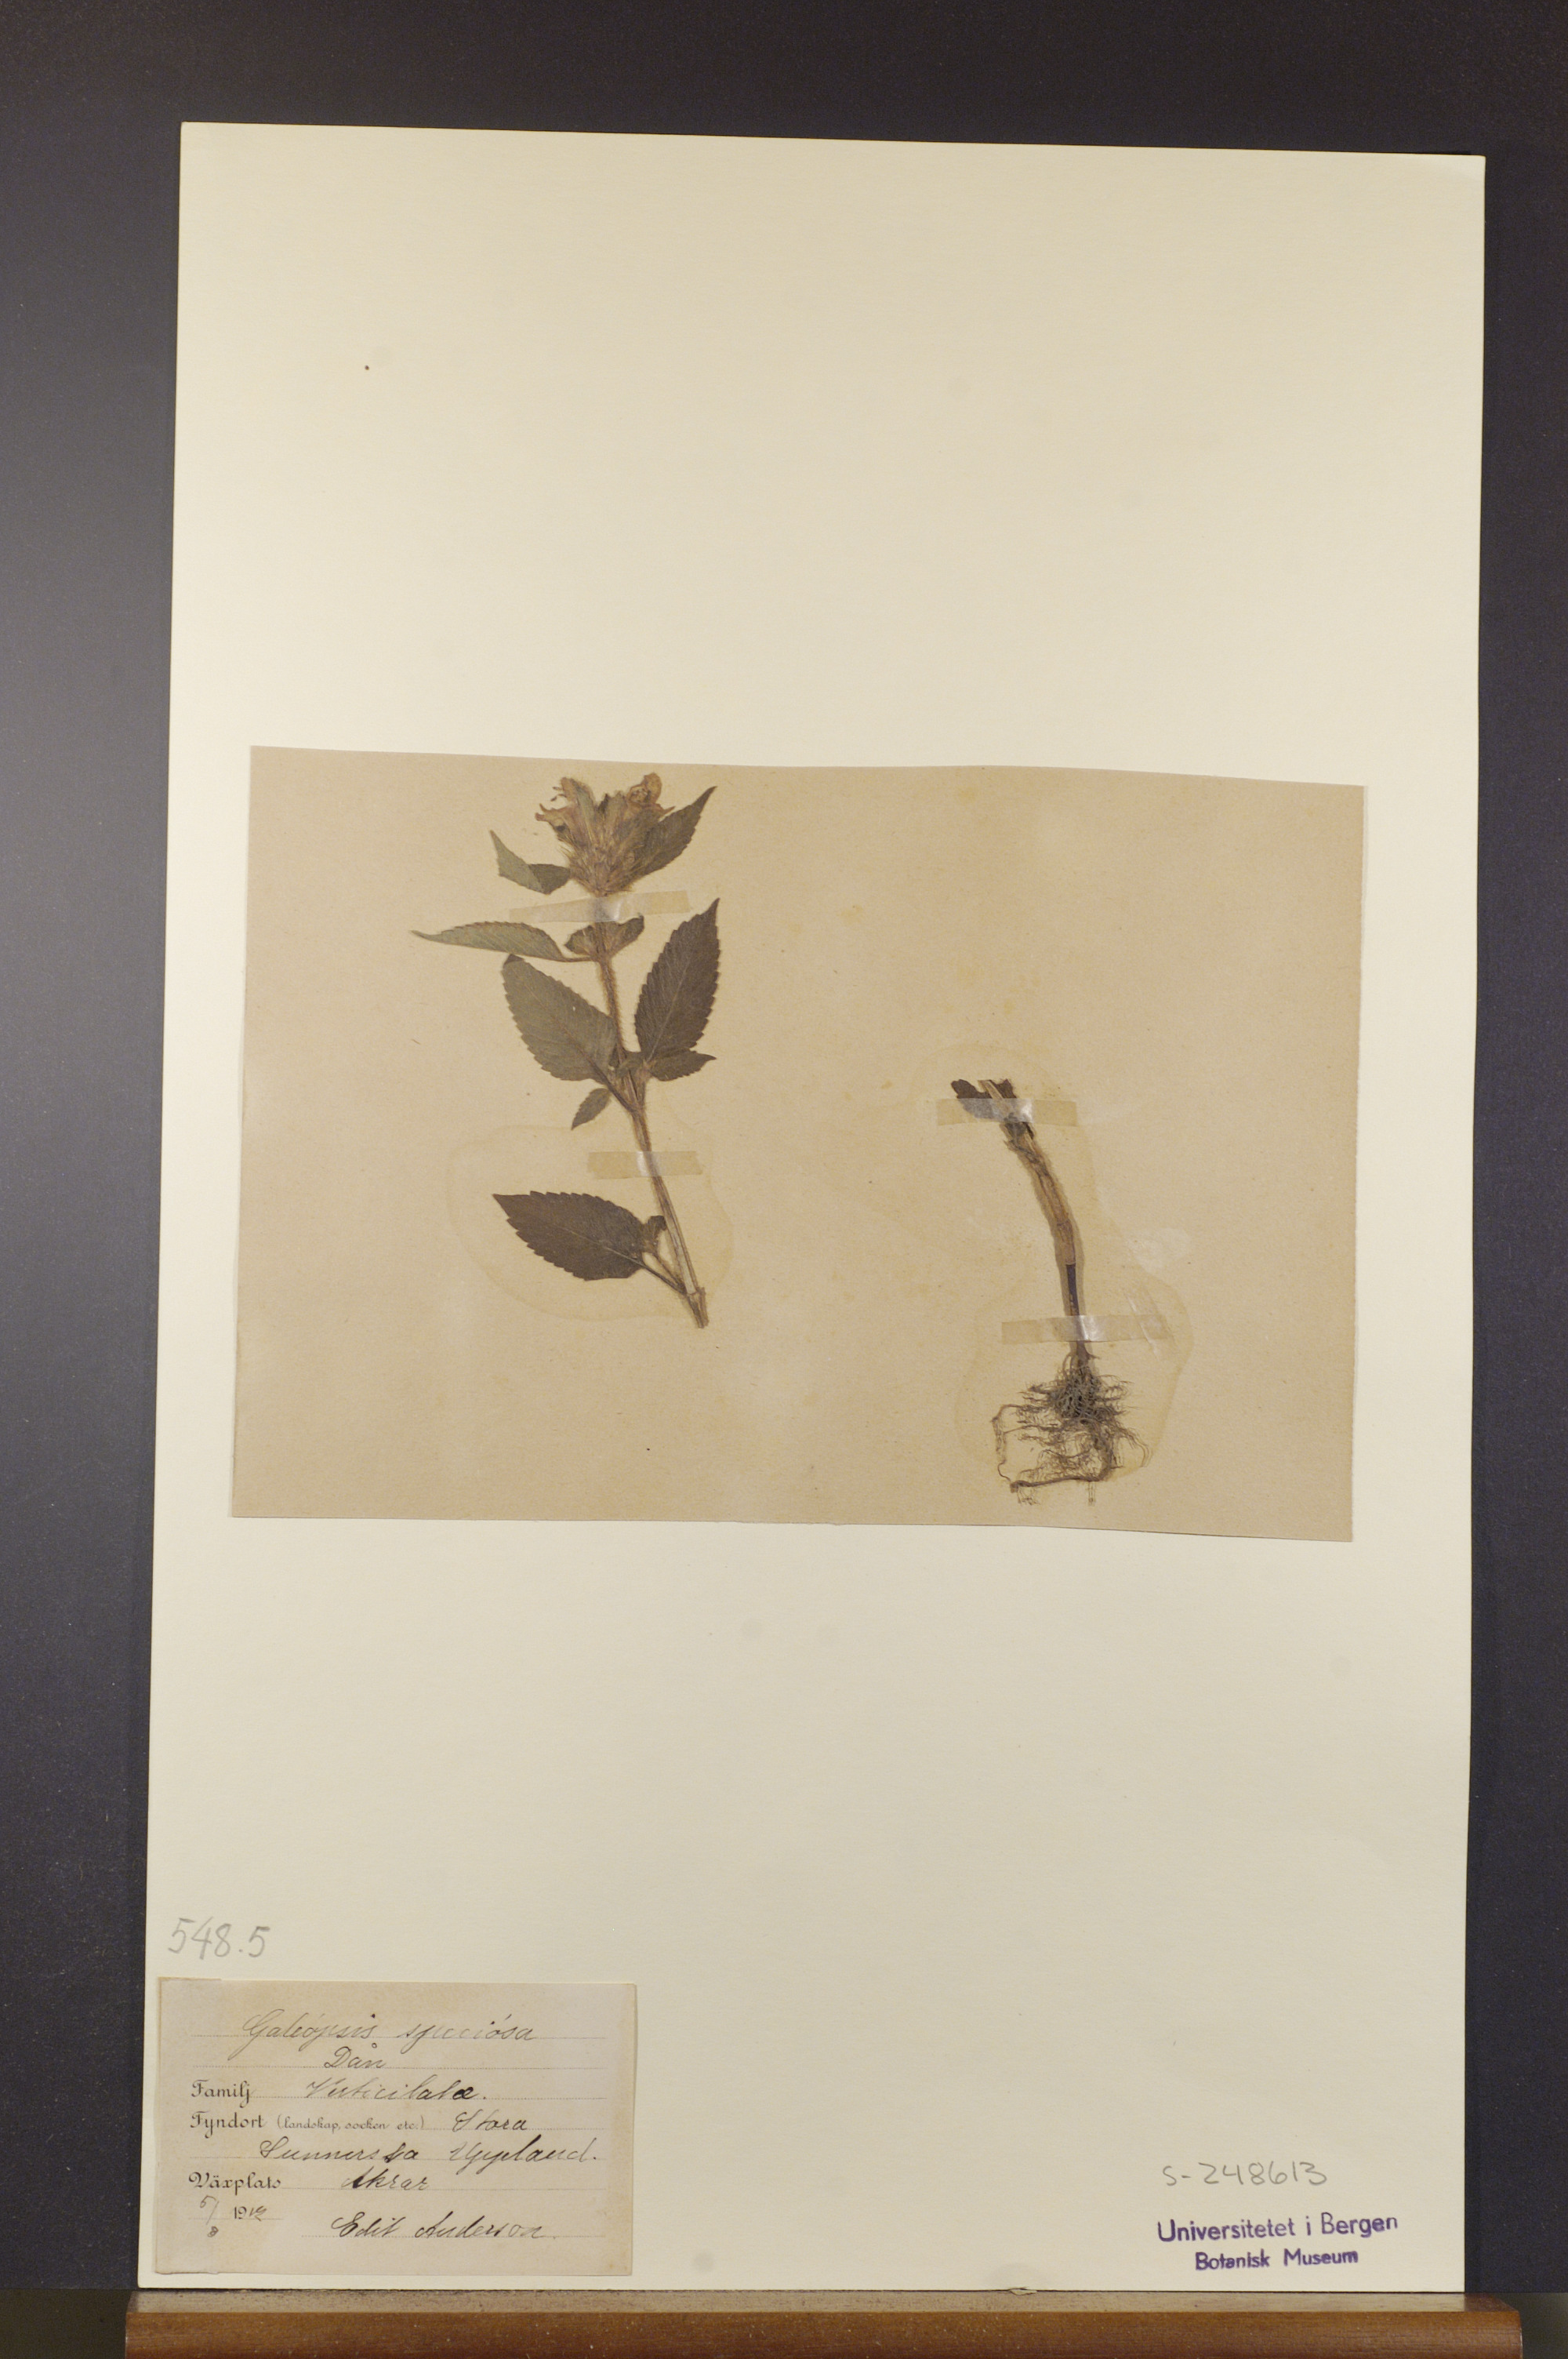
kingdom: Plantae
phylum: Tracheophyta
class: Magnoliopsida
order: Lamiales
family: Lamiaceae
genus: Galeopsis
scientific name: Galeopsis speciosa
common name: Large-flowered hemp-nettle
